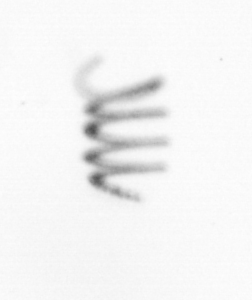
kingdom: Chromista
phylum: Ochrophyta
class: Bacillariophyceae
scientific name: Bacillariophyceae
